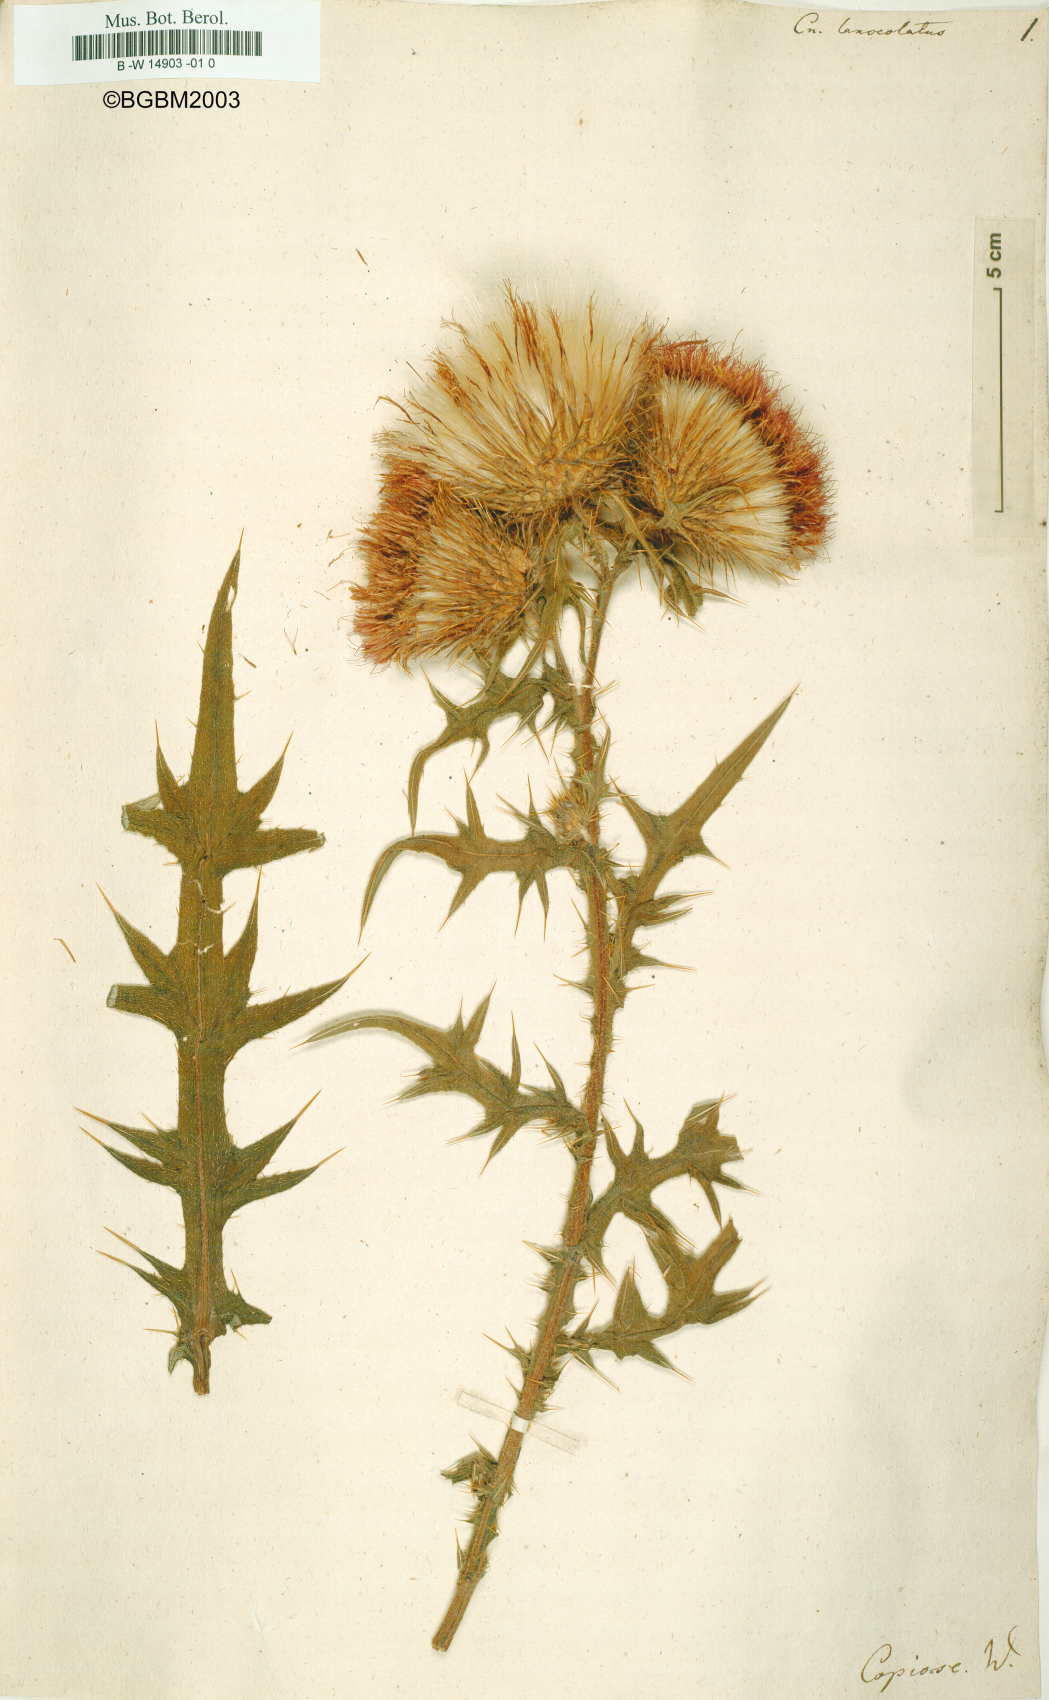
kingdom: Plantae
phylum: Tracheophyta
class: Magnoliopsida
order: Asterales
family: Asteraceae
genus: Cirsium
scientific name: Cirsium vulgare
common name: Bull thistle
